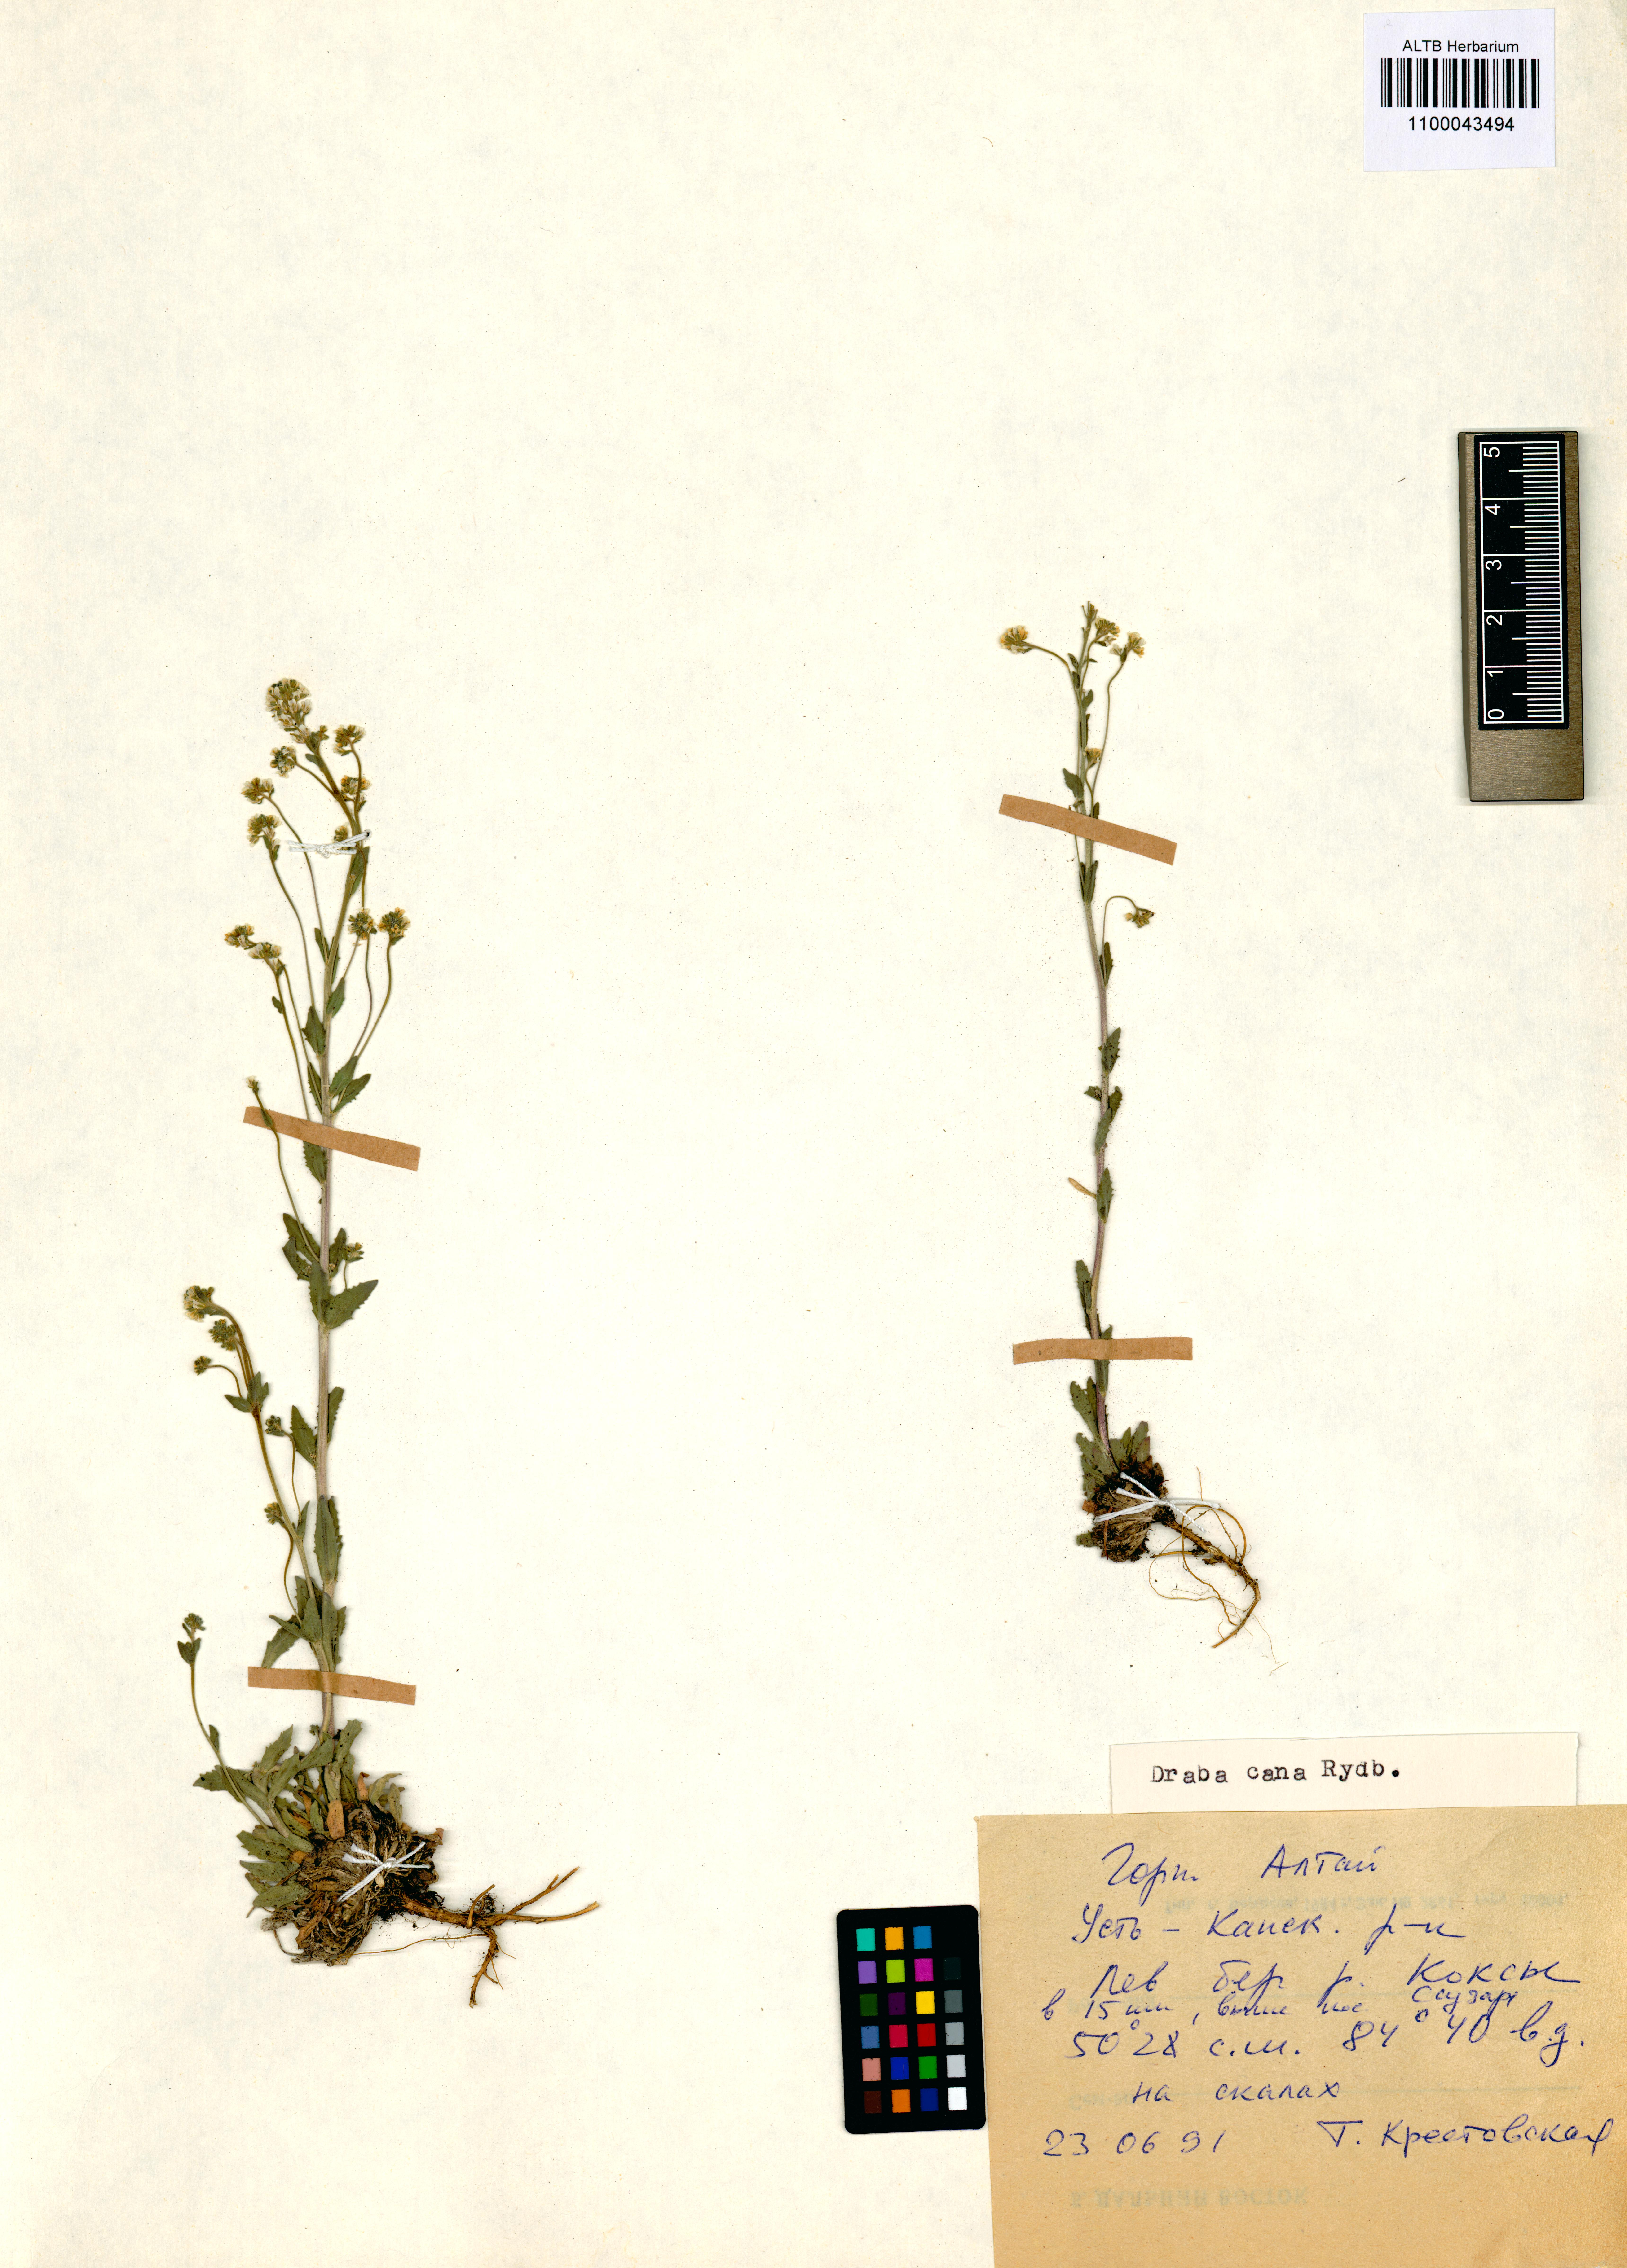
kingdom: Plantae
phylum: Tracheophyta
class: Magnoliopsida
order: Brassicales
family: Brassicaceae
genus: Draba
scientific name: Draba cana
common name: Hoary draba
